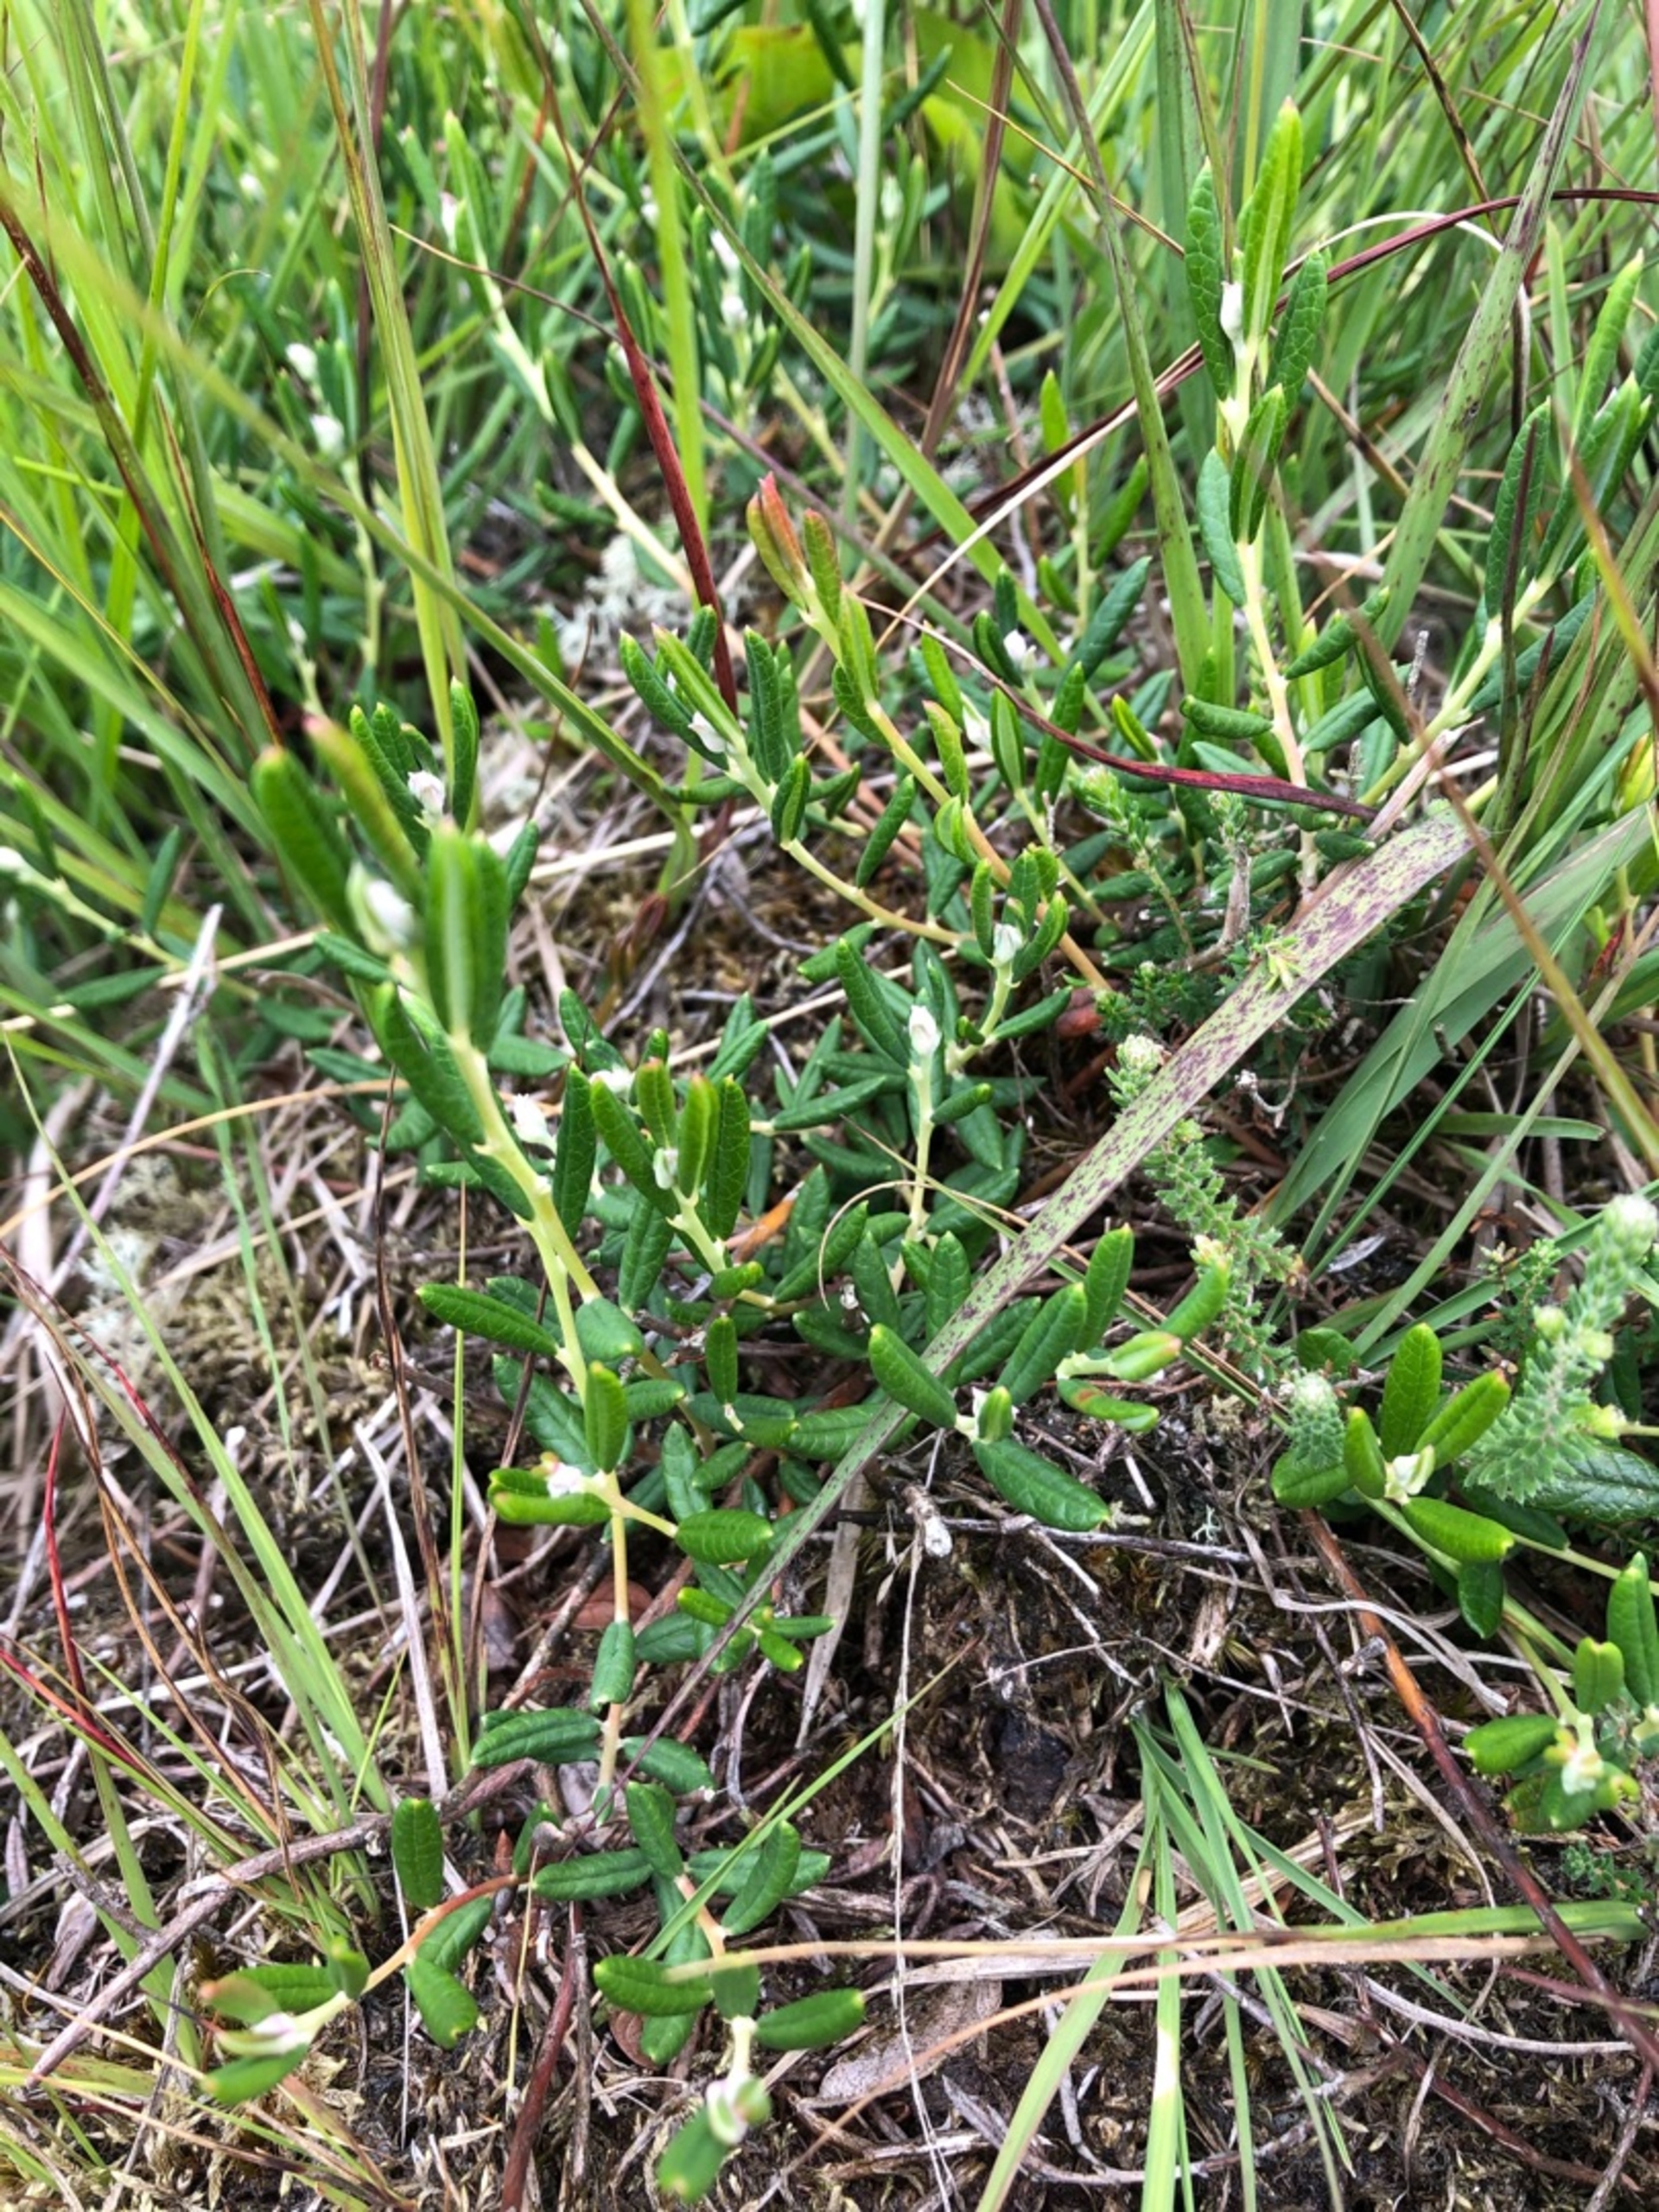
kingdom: Plantae
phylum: Tracheophyta
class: Magnoliopsida
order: Ericales
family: Ericaceae
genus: Andromeda
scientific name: Andromeda polifolia
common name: Rosmarinlyng
